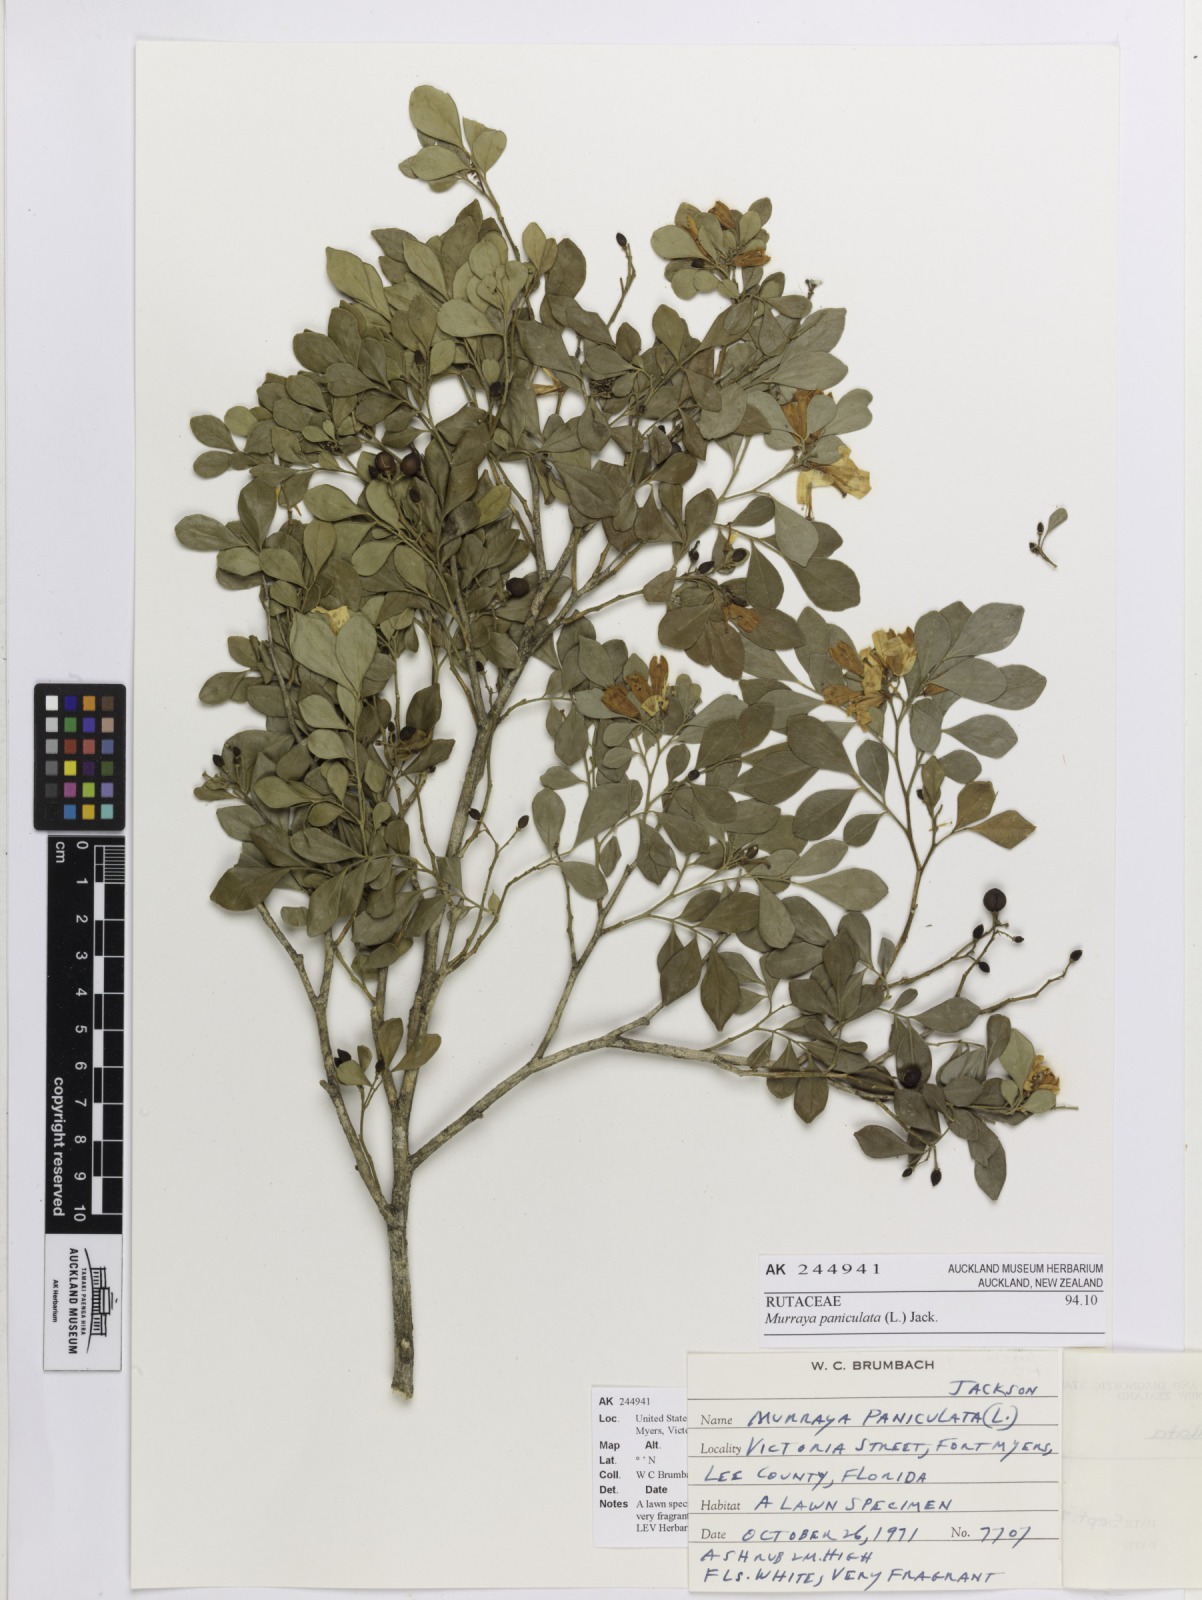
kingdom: Plantae
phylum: Tracheophyta
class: Magnoliopsida
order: Sapindales
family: Rutaceae
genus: Murraya
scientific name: Murraya paniculata
